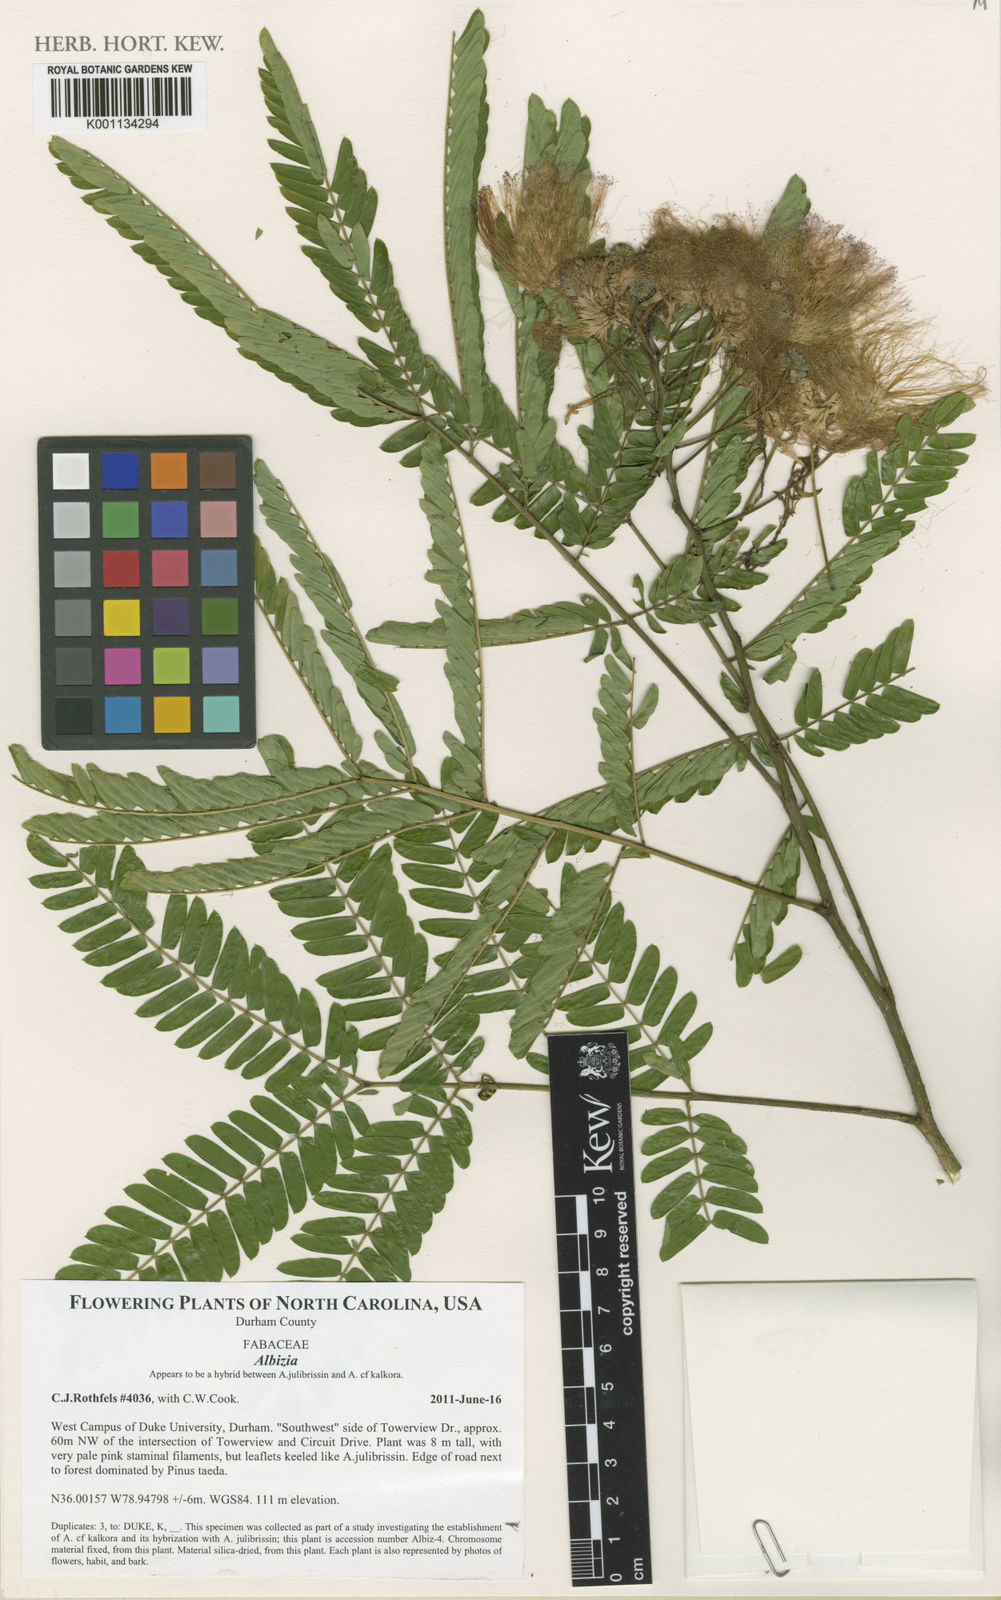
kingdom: Plantae
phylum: Tracheophyta
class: Magnoliopsida
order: Fabales
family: Fabaceae
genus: Albizia
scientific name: Albizia
